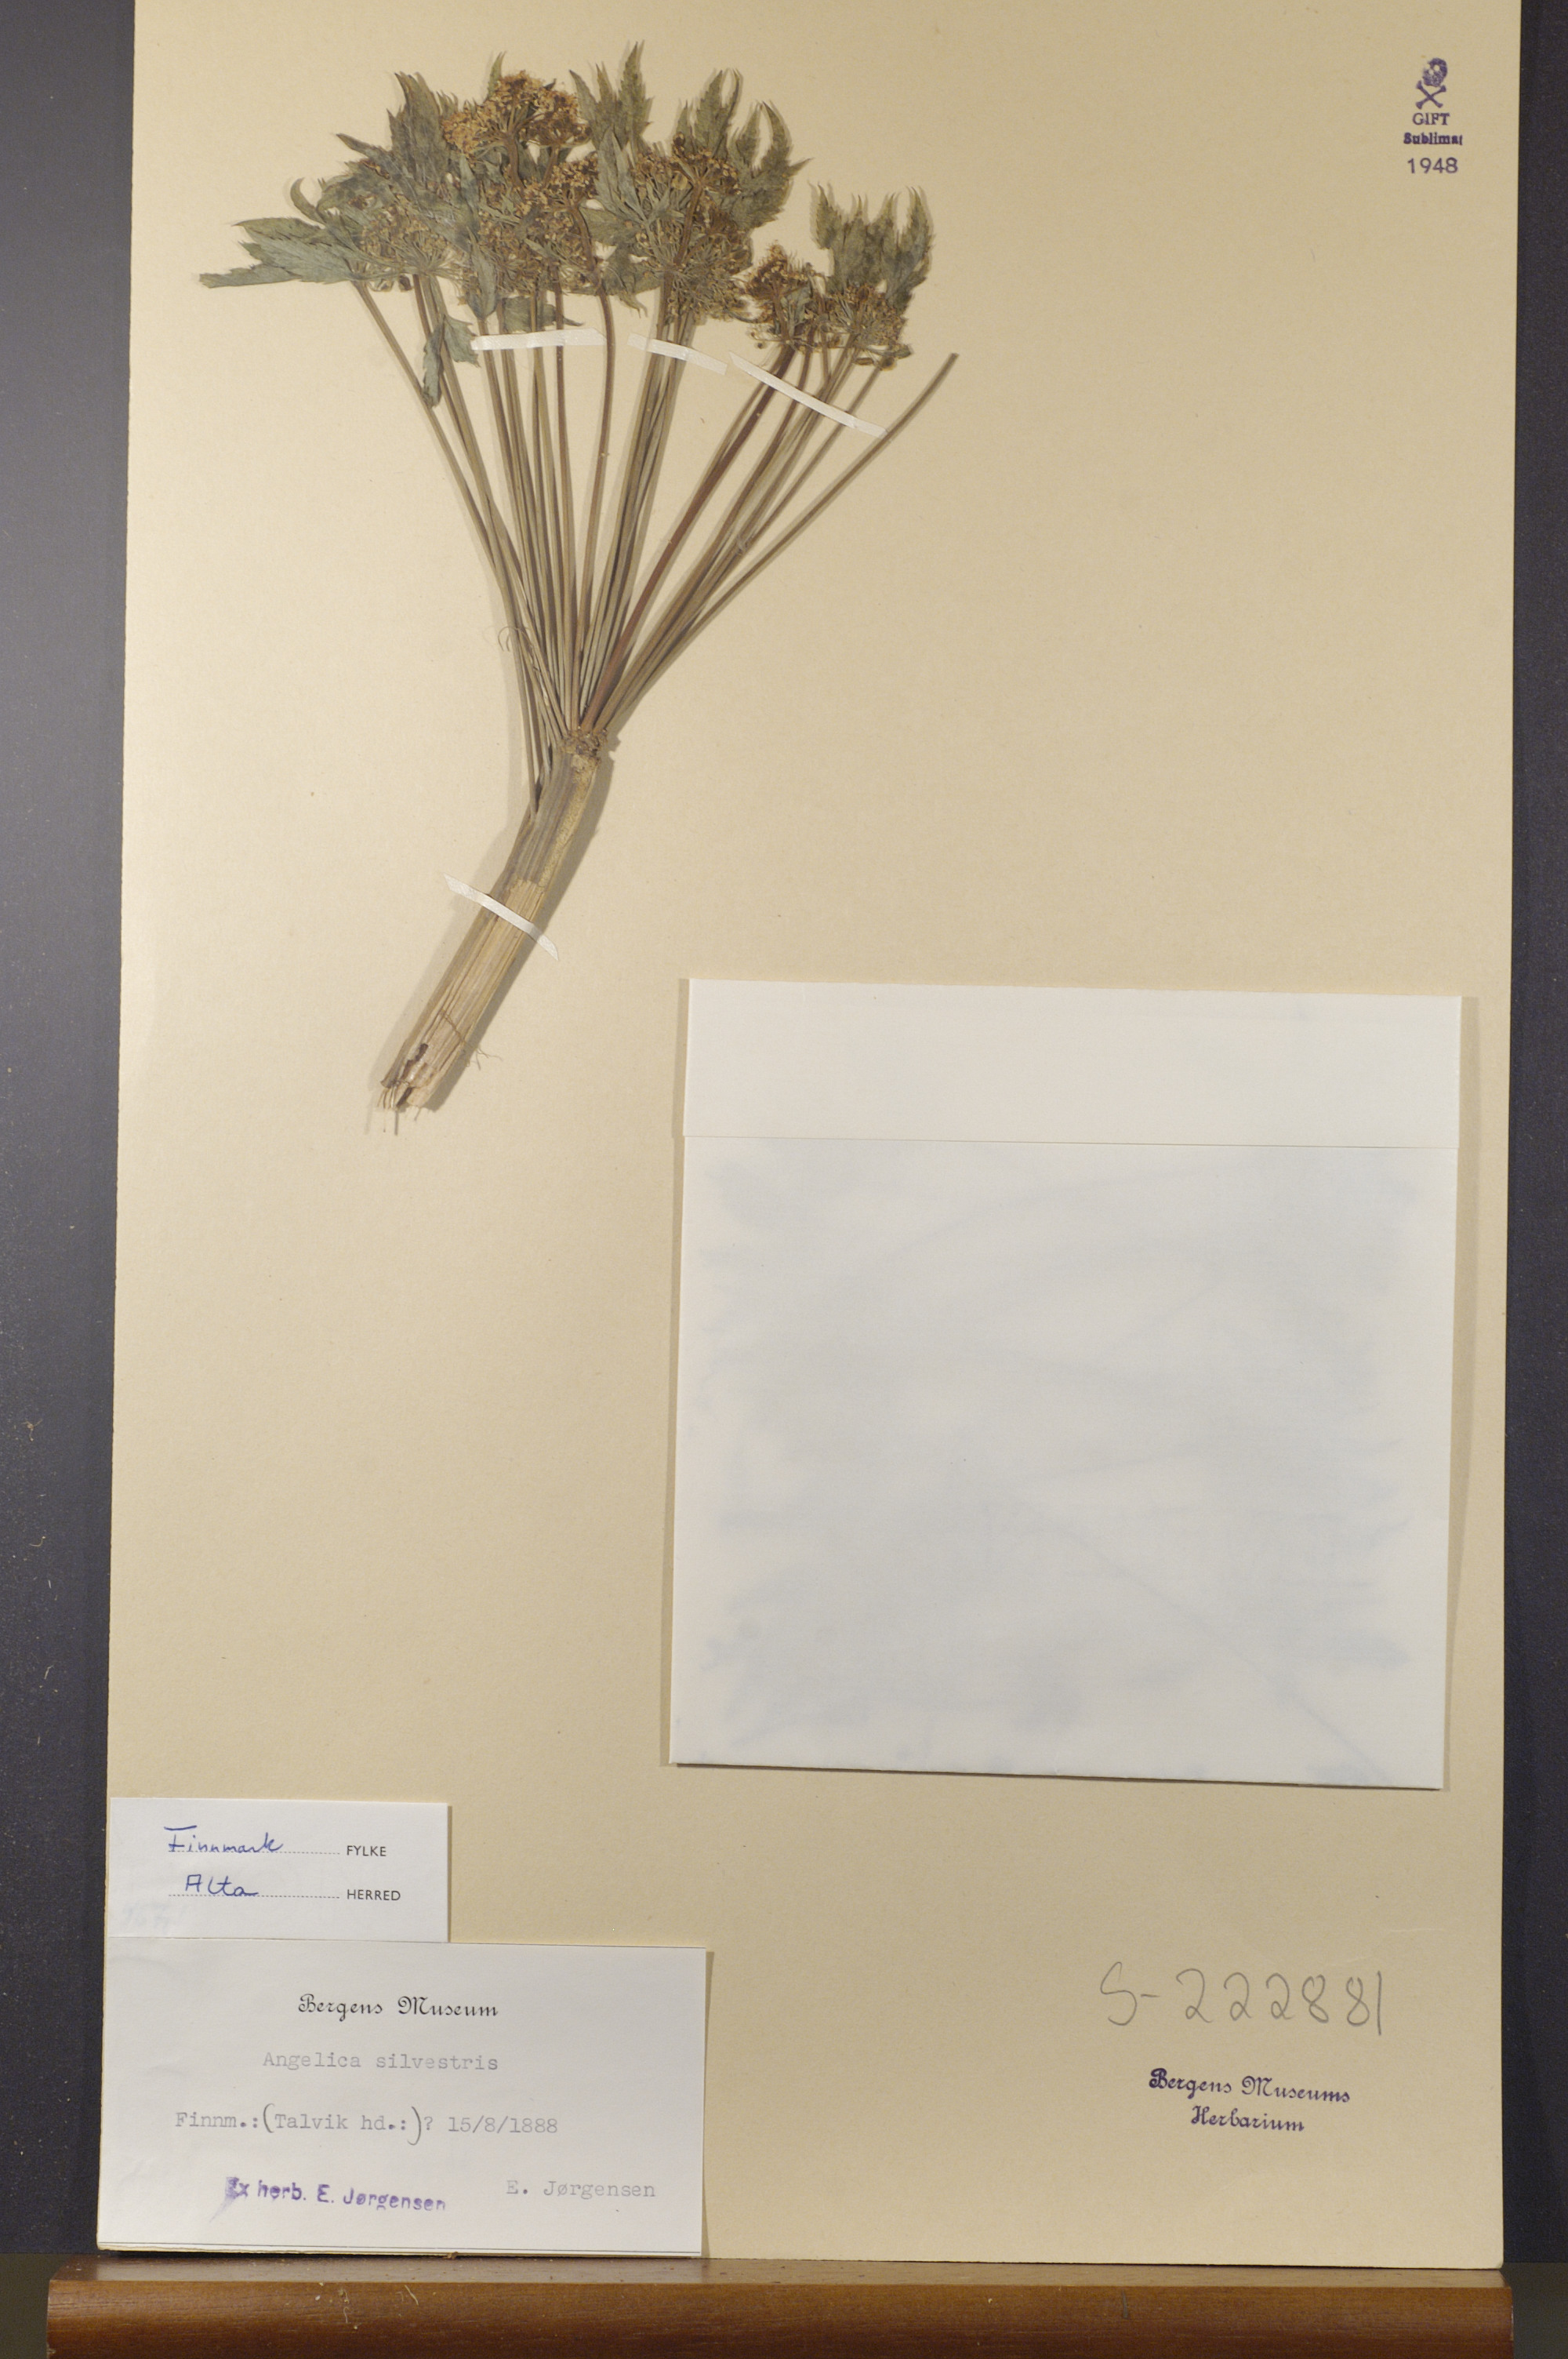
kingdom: Plantae
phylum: Tracheophyta
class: Magnoliopsida
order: Apiales
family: Apiaceae
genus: Angelica
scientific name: Angelica sylvestris
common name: Wild angelica
